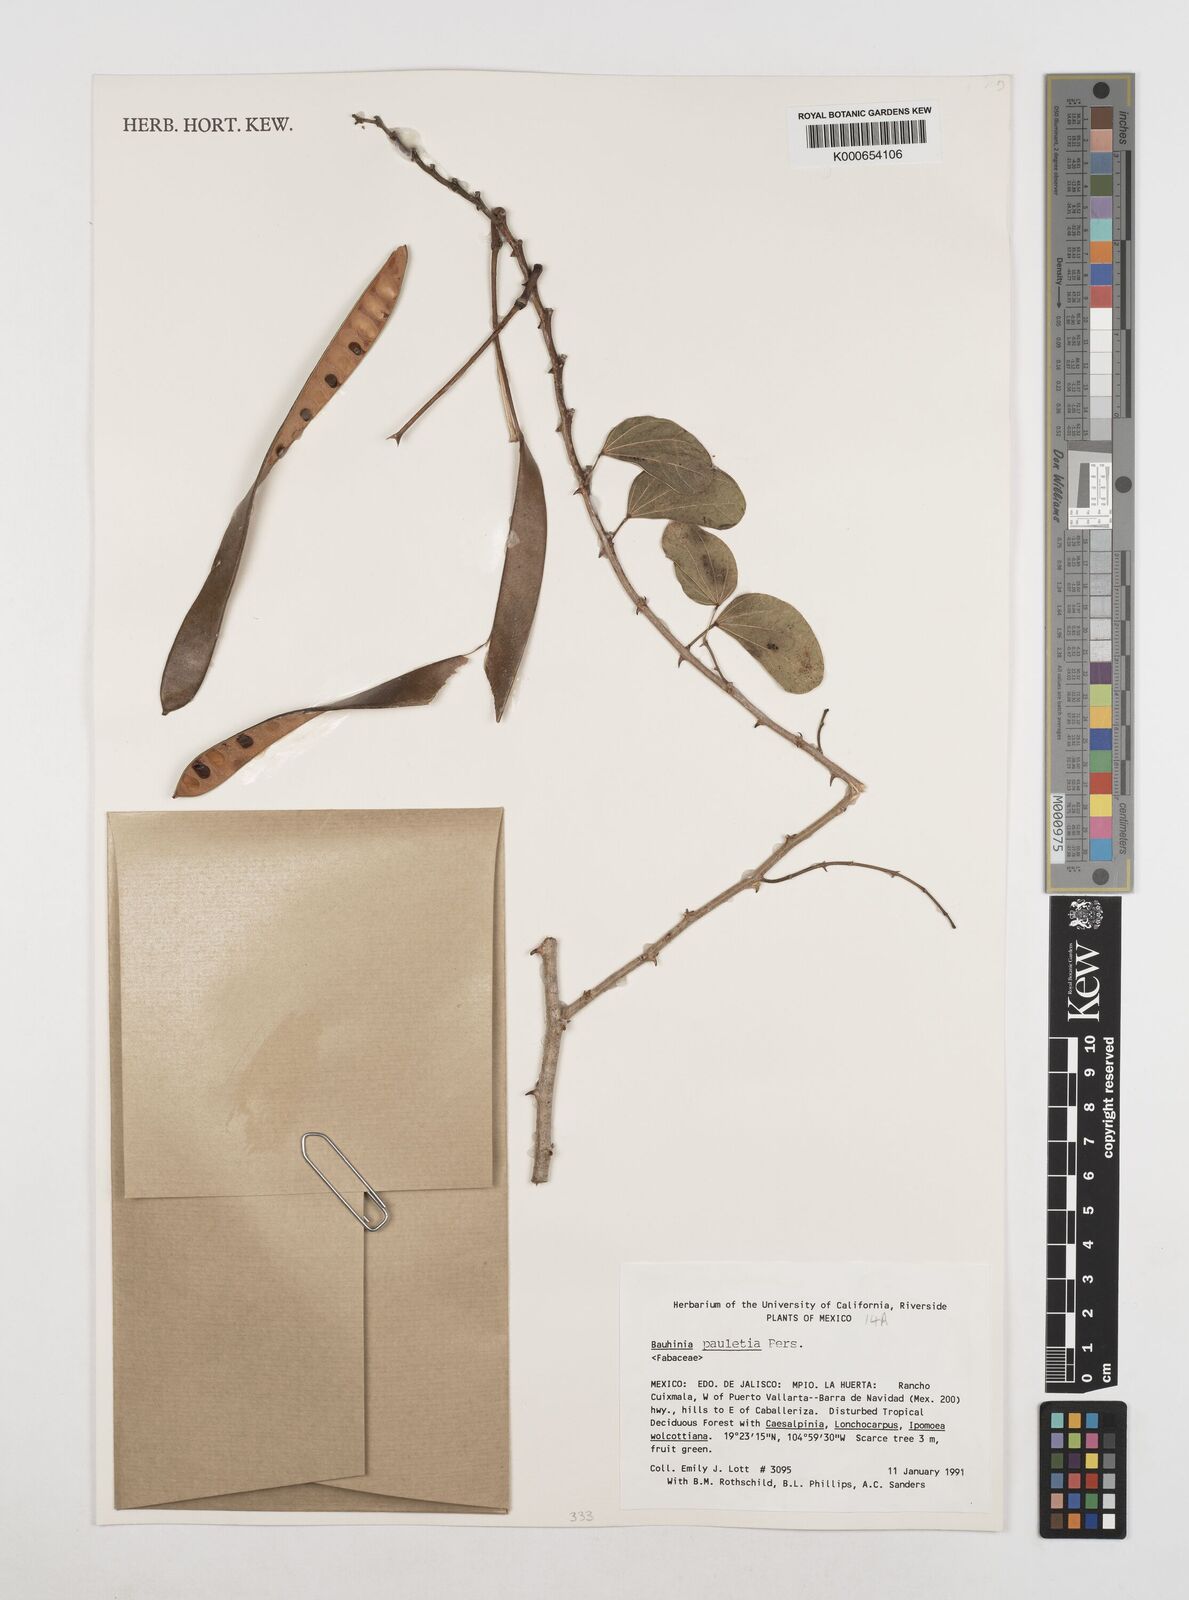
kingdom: Plantae
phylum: Tracheophyta
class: Magnoliopsida
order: Fabales
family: Fabaceae
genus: Bauhinia
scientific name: Bauhinia pauletia
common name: Railway-fence bauhinia
